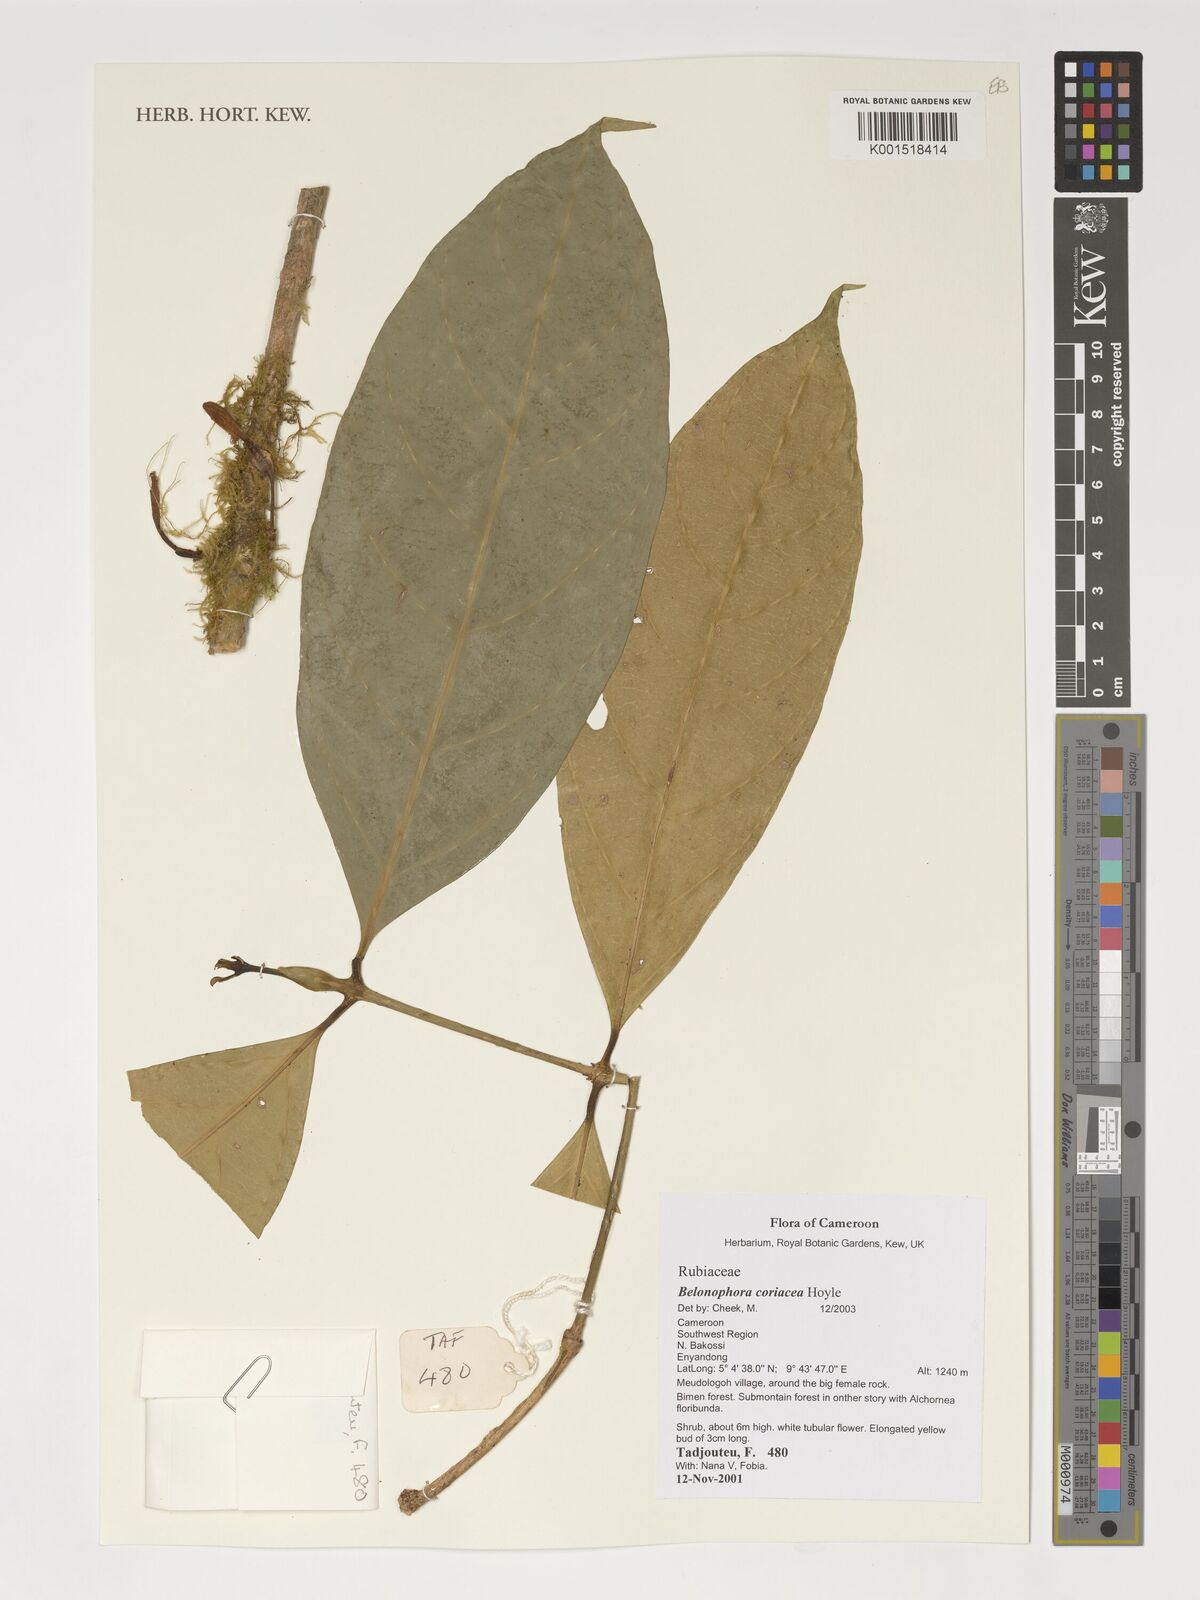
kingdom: Plantae
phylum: Tracheophyta
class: Magnoliopsida
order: Gentianales
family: Rubiaceae
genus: Belonophora
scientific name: Belonophora coriacea
